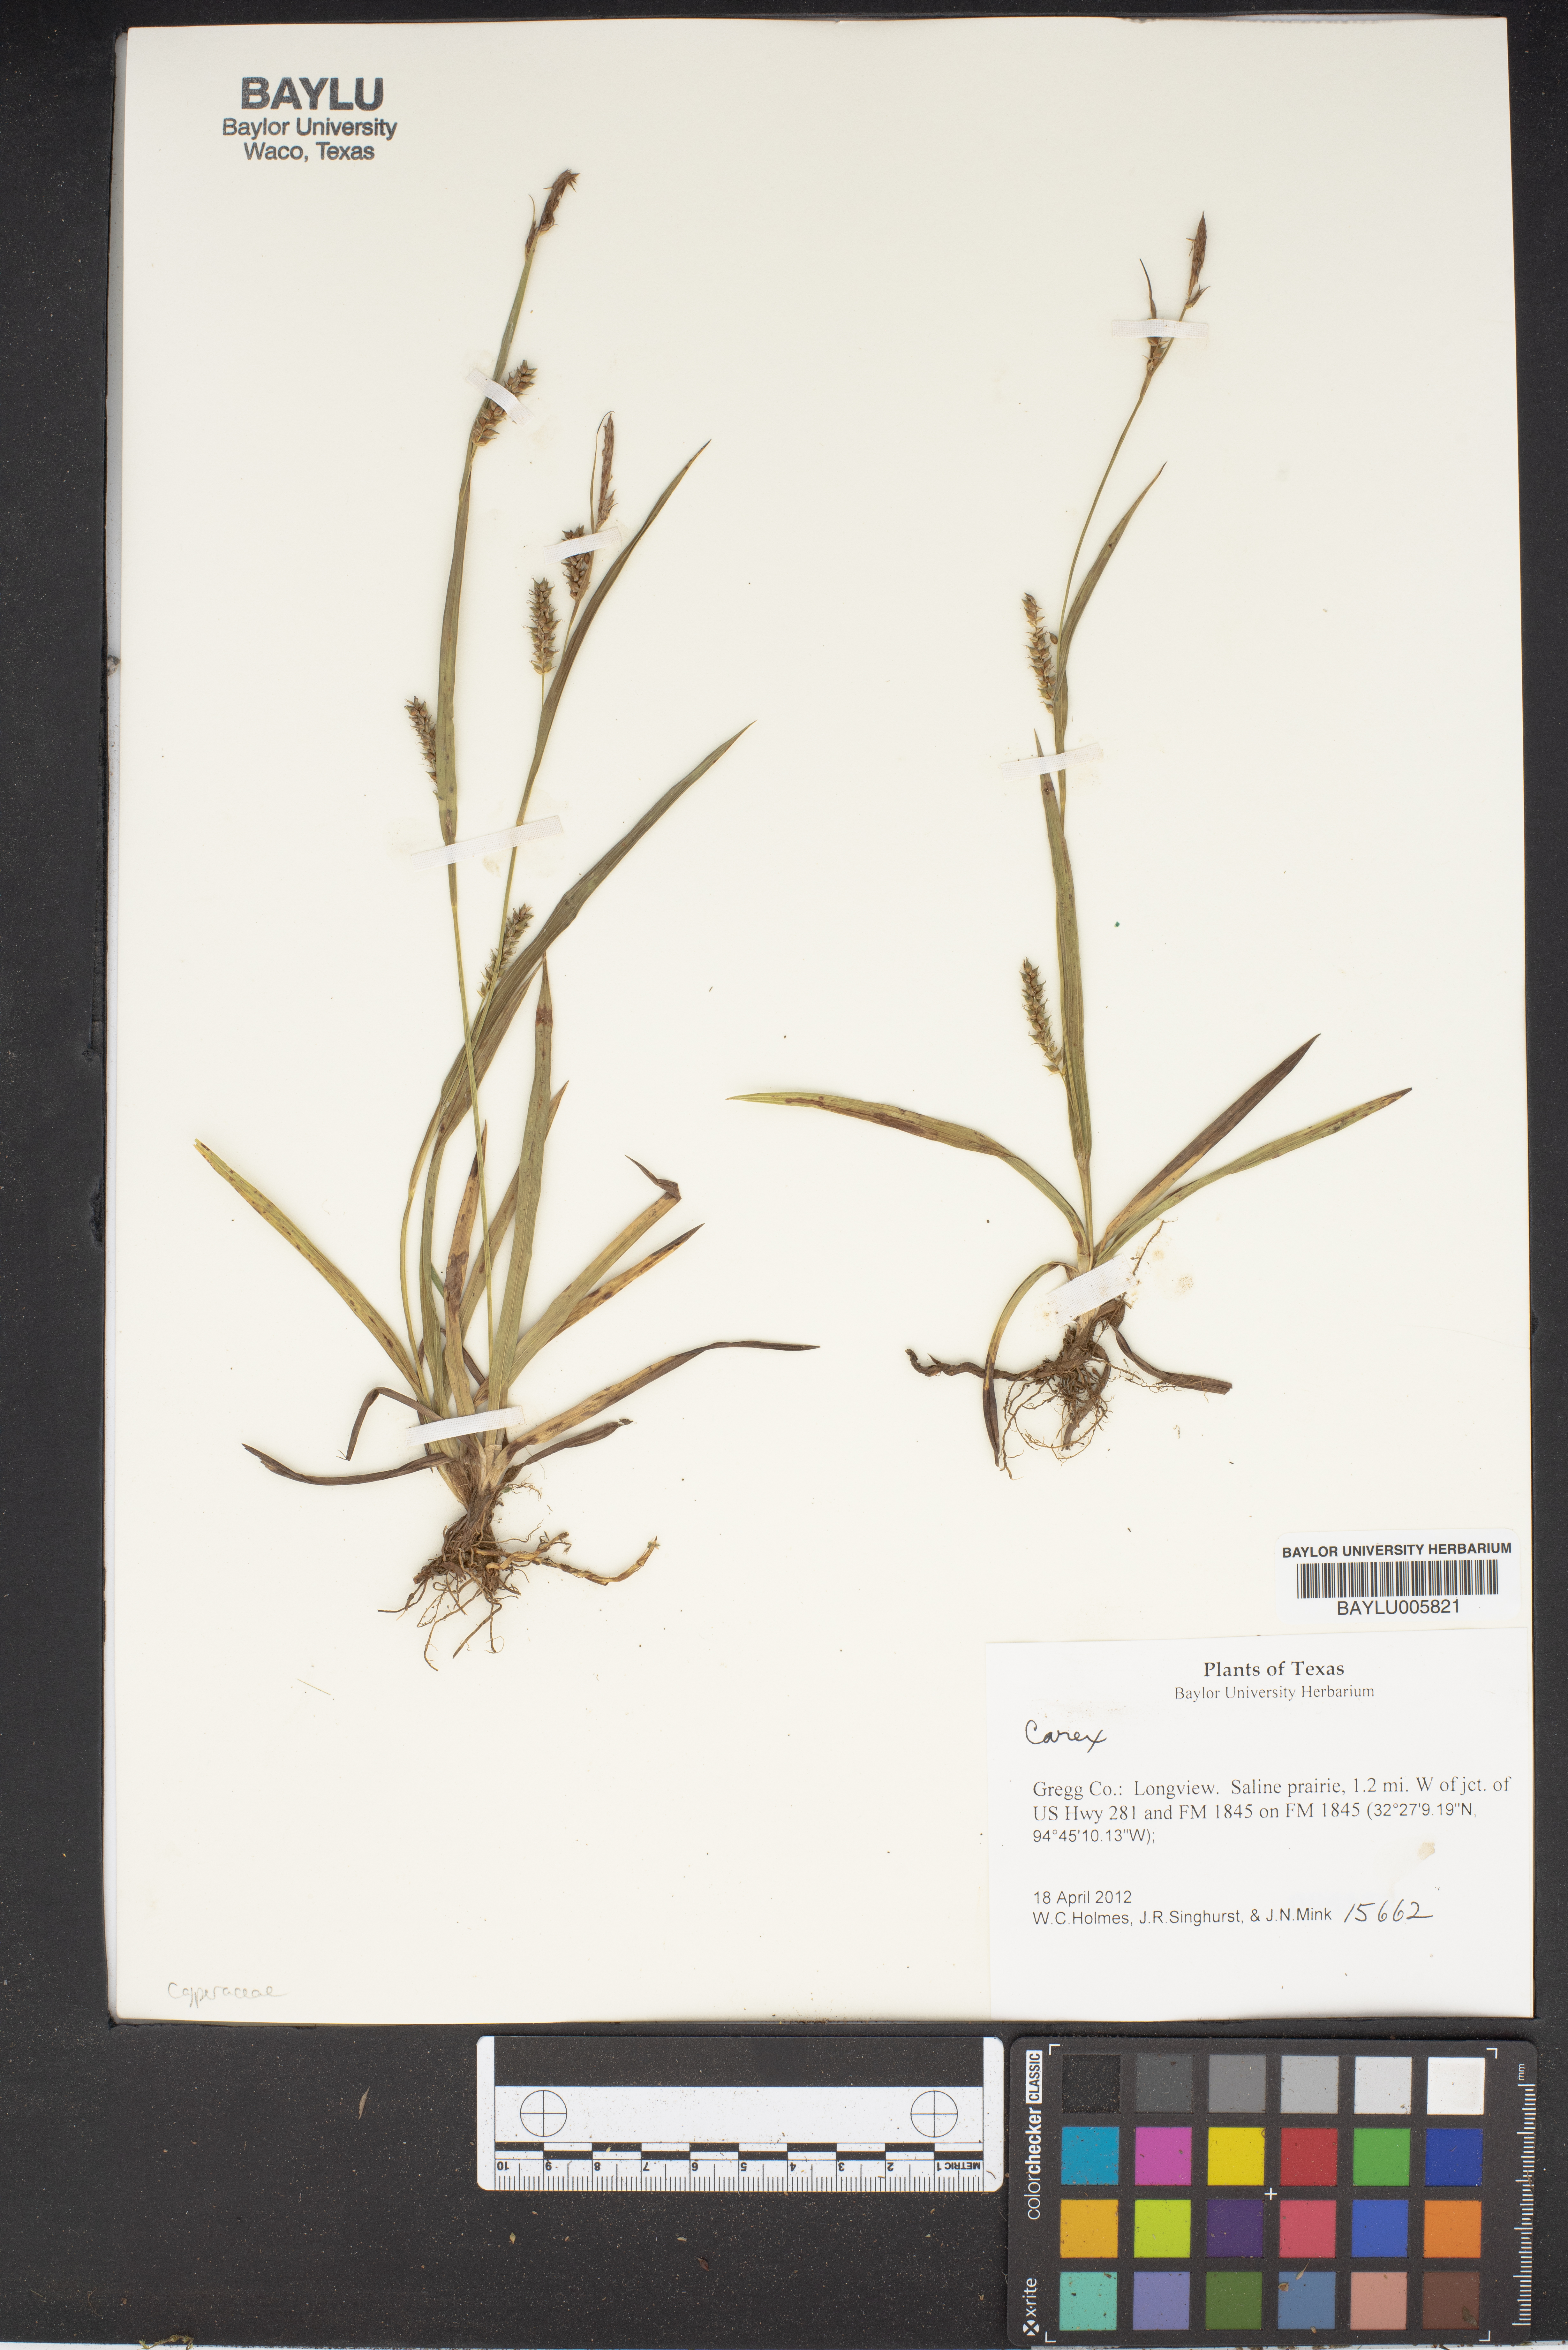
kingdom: Plantae
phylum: Tracheophyta
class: Liliopsida
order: Poales
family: Cyperaceae
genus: Carex
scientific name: Carex
